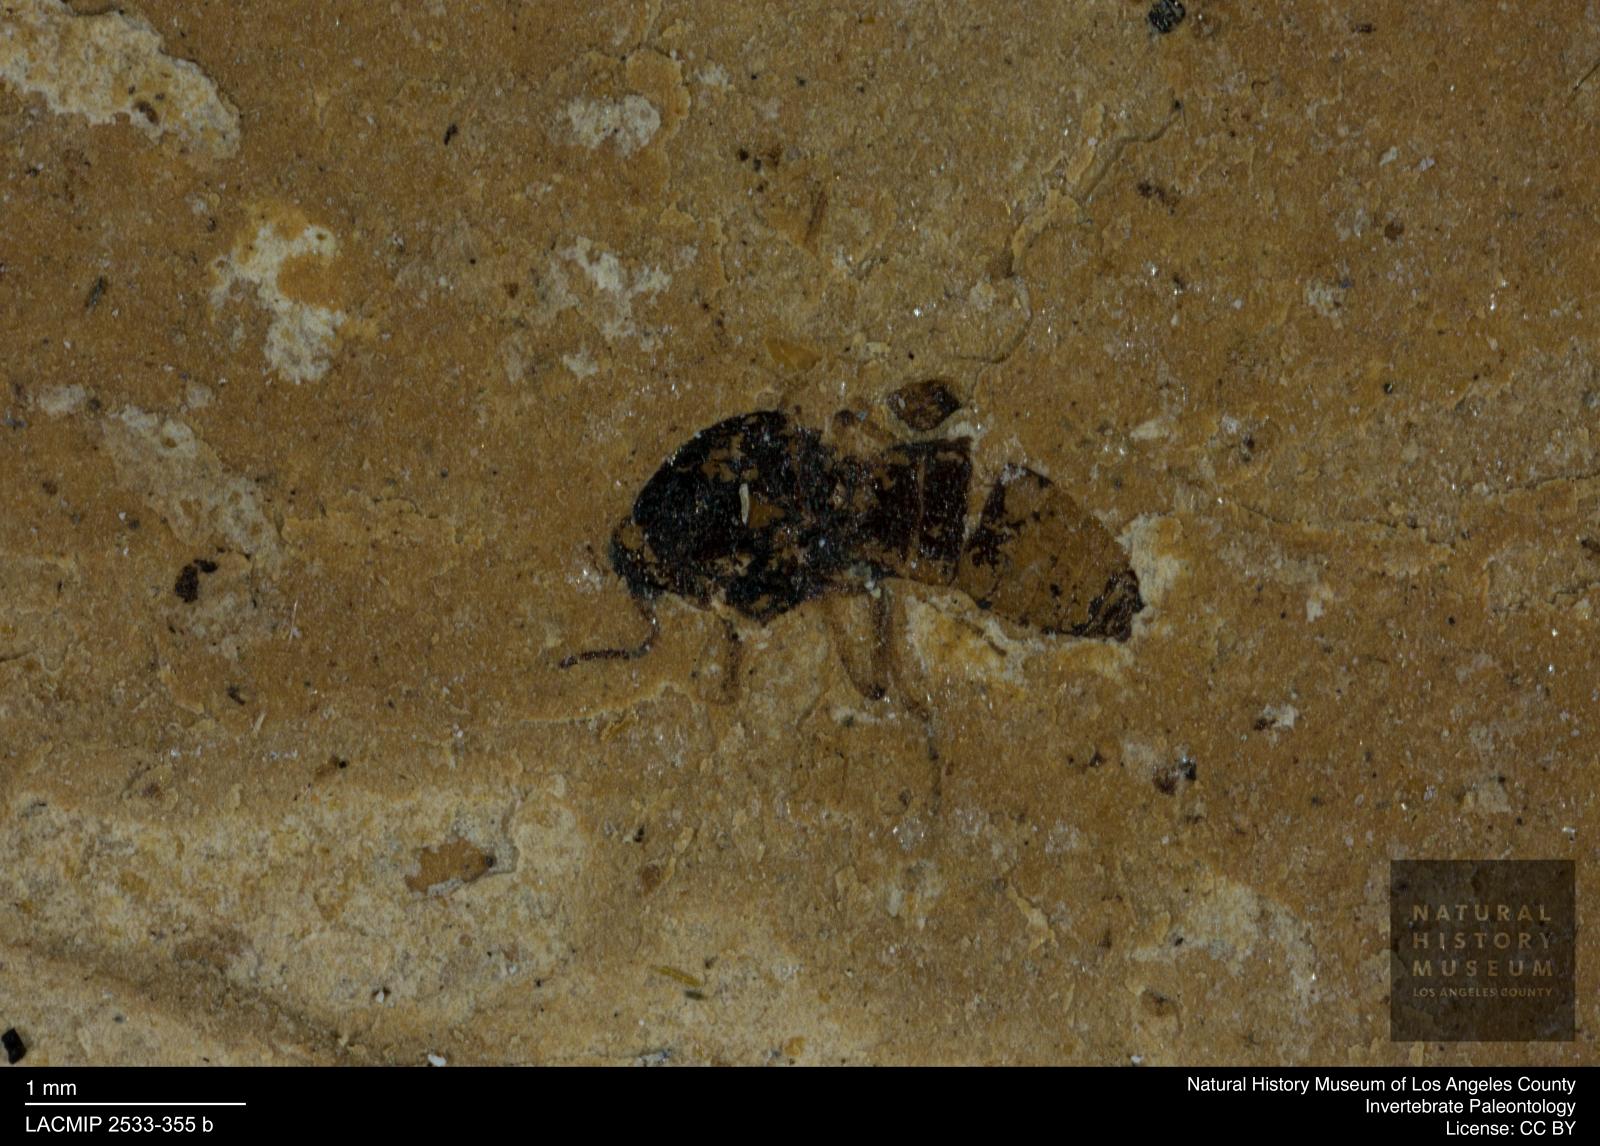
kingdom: Animalia
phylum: Arthropoda
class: Insecta
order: Diptera
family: Ceratopogonidae
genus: Culicoides
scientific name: Culicoides bicolor
